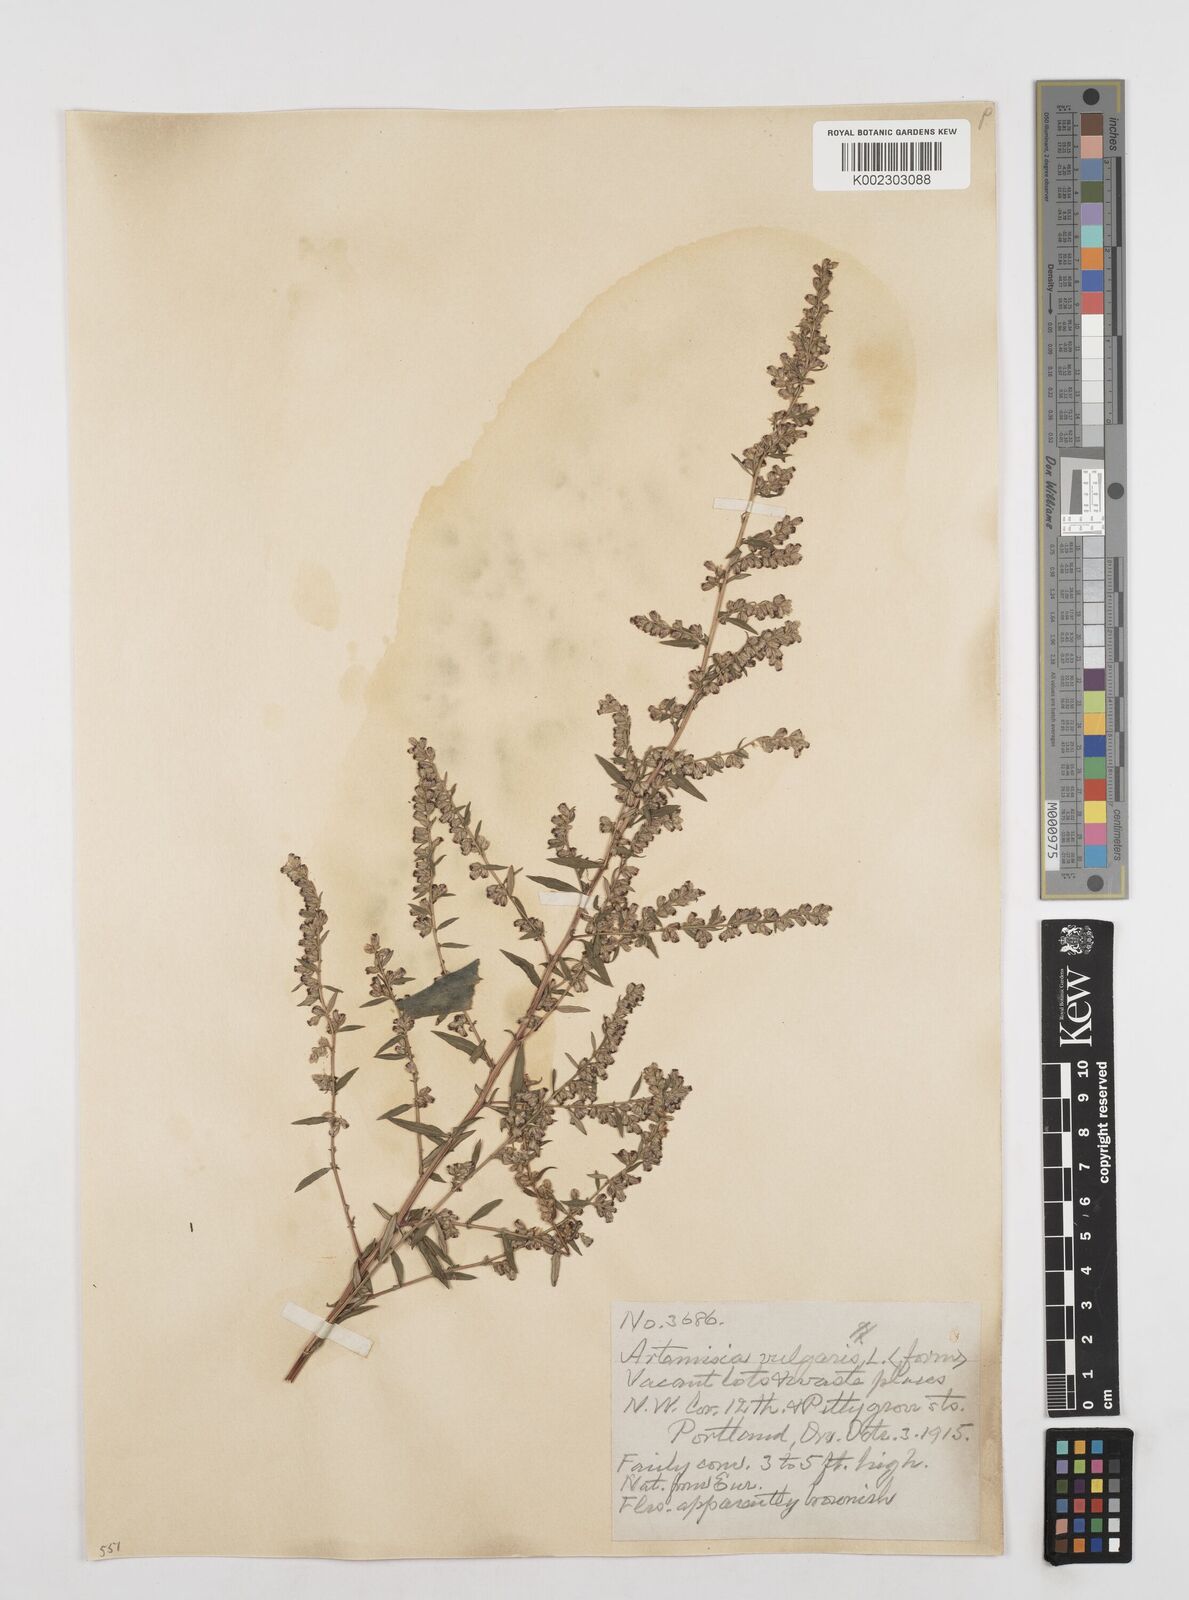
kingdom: Plantae
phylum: Tracheophyta
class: Magnoliopsida
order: Asterales
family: Asteraceae
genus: Artemisia
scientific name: Artemisia vulgaris
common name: Mugwort
